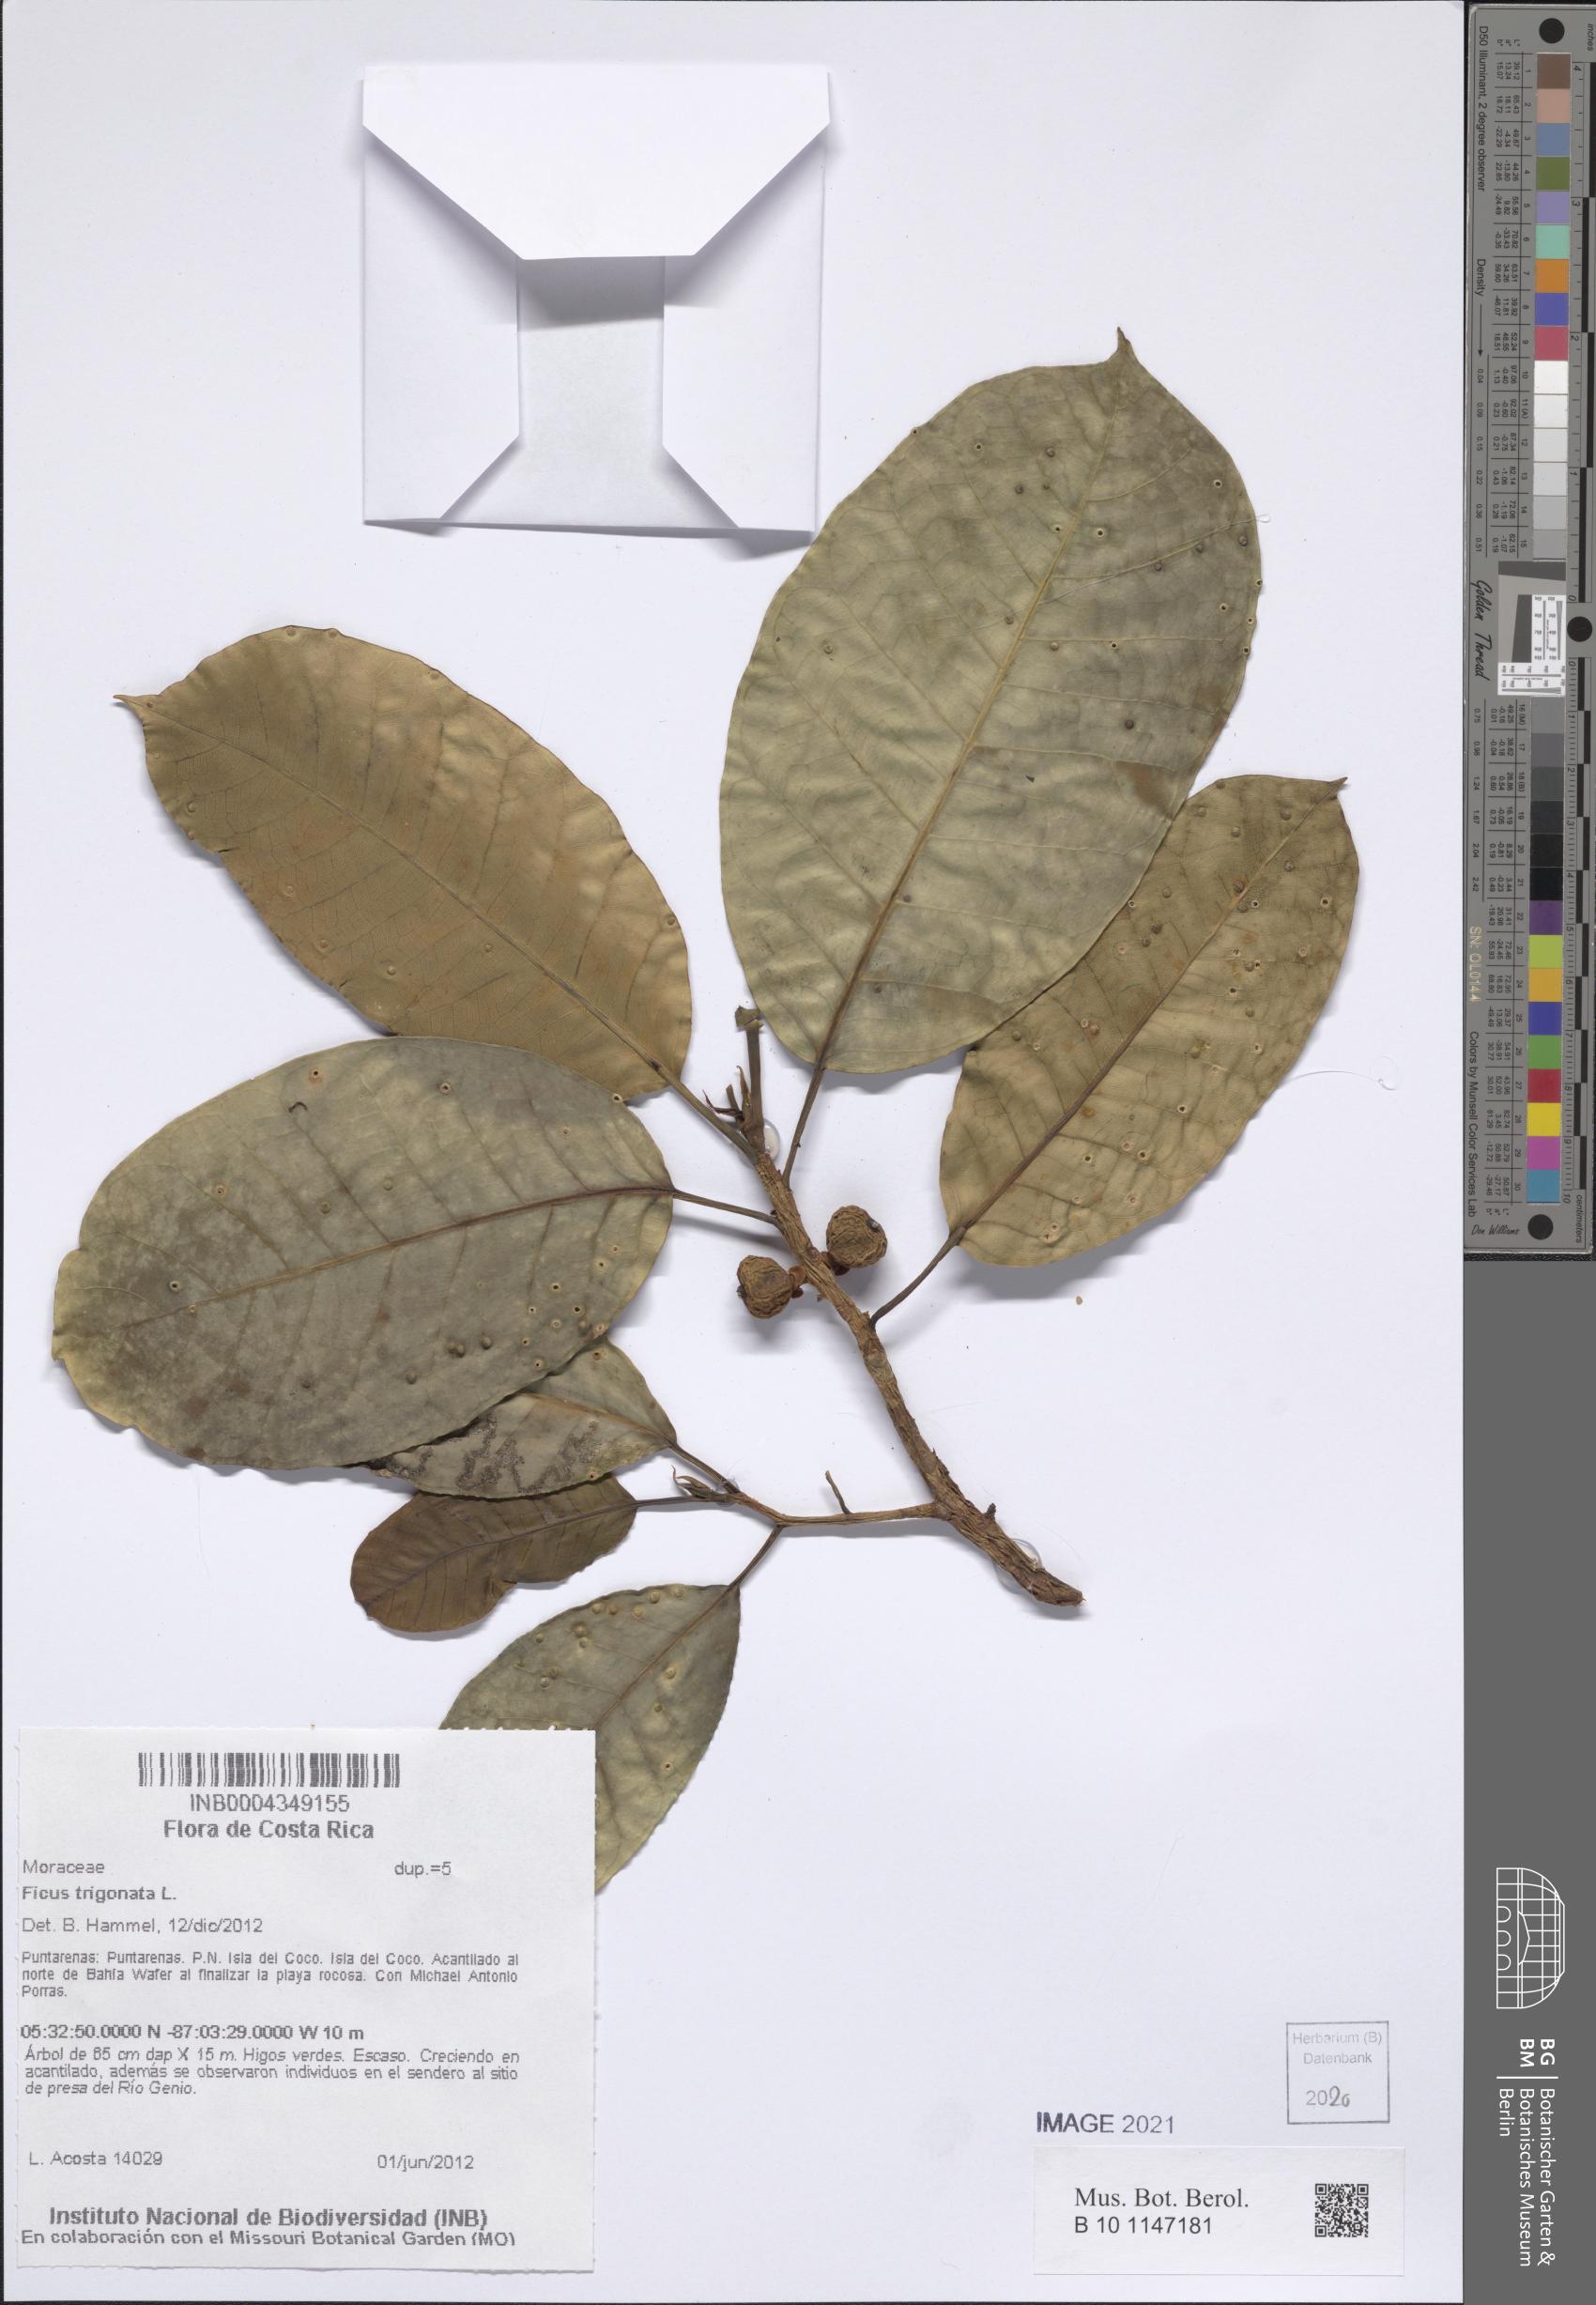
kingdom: Plantae
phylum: Tracheophyta
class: Magnoliopsida
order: Rosales
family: Moraceae
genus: Ficus
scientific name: Ficus trigonata
